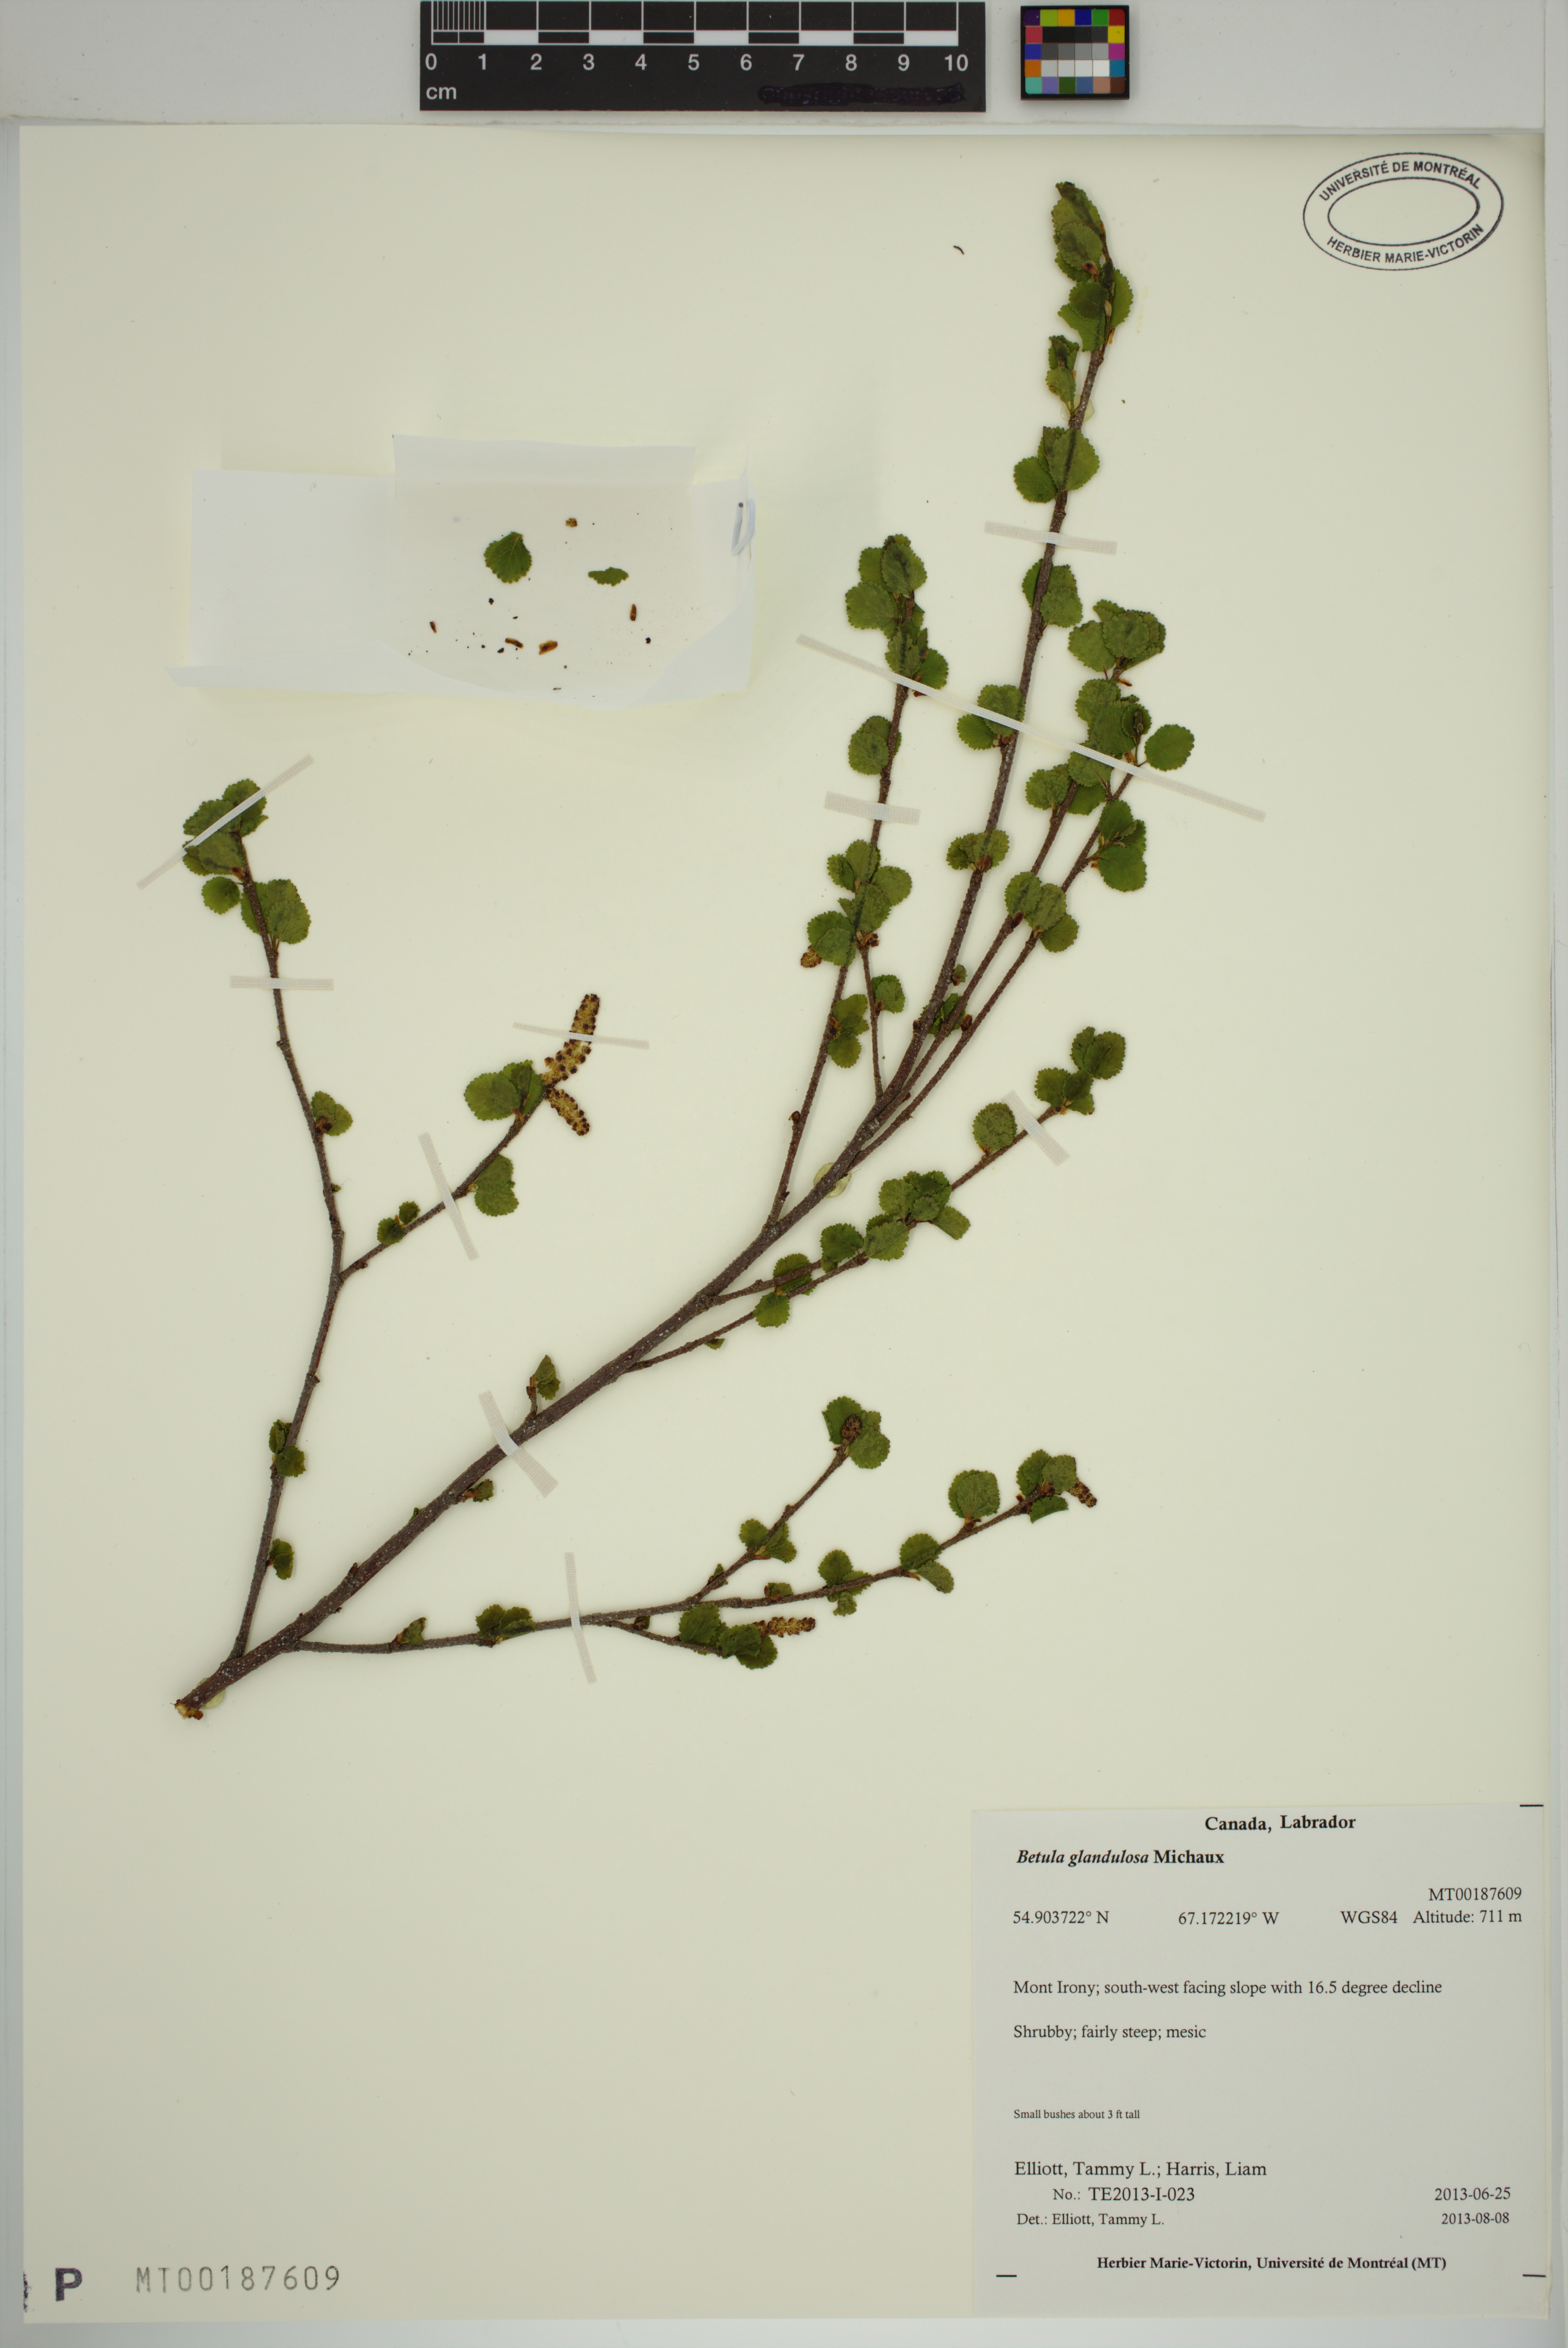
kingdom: Plantae
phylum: Tracheophyta
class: Magnoliopsida
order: Fagales
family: Betulaceae
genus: Betula
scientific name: Betula glandulosa
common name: Dwarf birch
